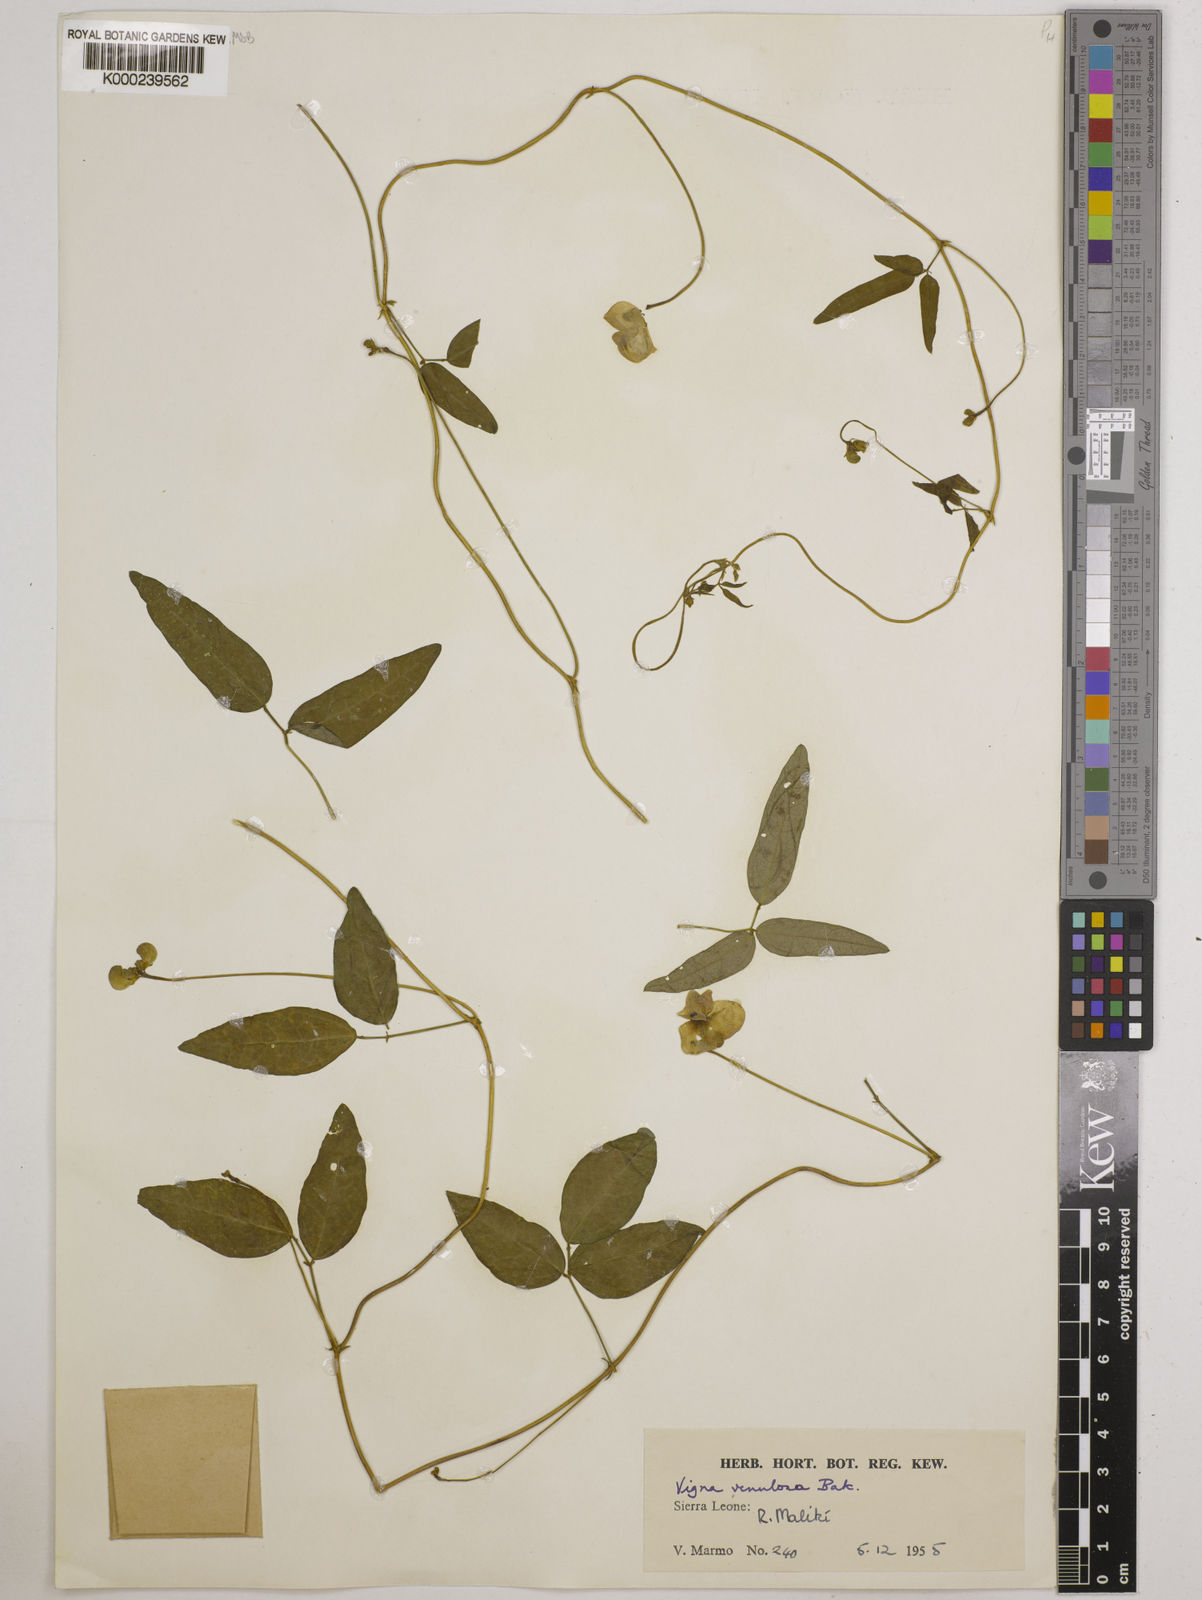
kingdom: Plantae
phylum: Tracheophyta
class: Magnoliopsida
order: Fabales
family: Fabaceae
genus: Vigna
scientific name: Vigna venulosa
